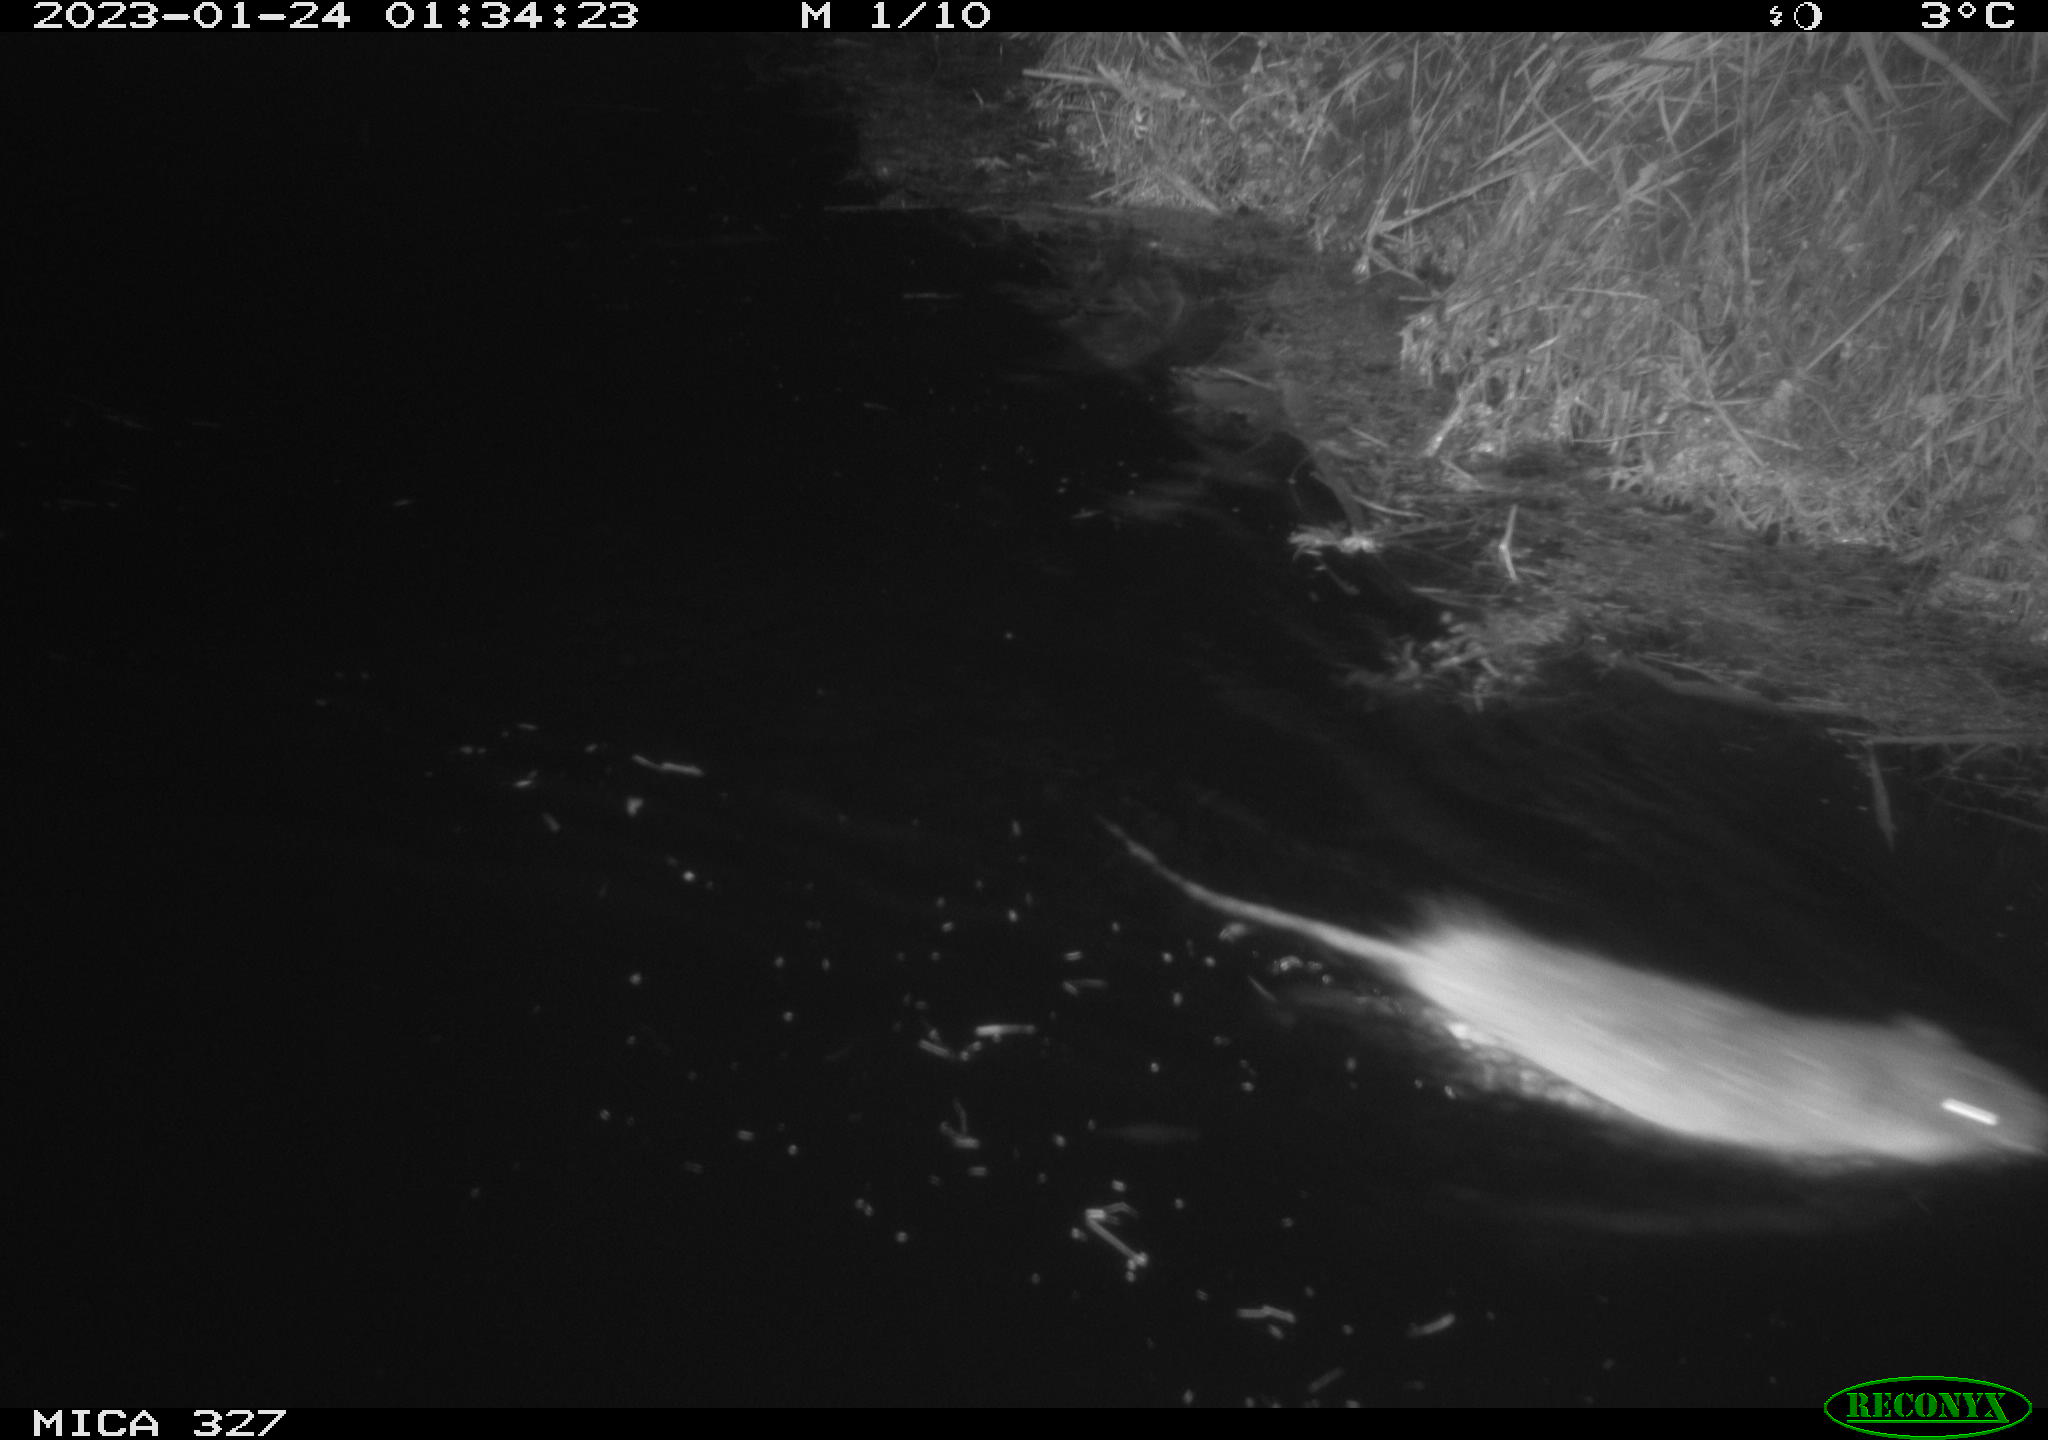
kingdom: Animalia
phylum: Chordata
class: Mammalia
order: Rodentia
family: Cricetidae
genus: Ondatra
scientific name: Ondatra zibethicus
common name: Muskrat
